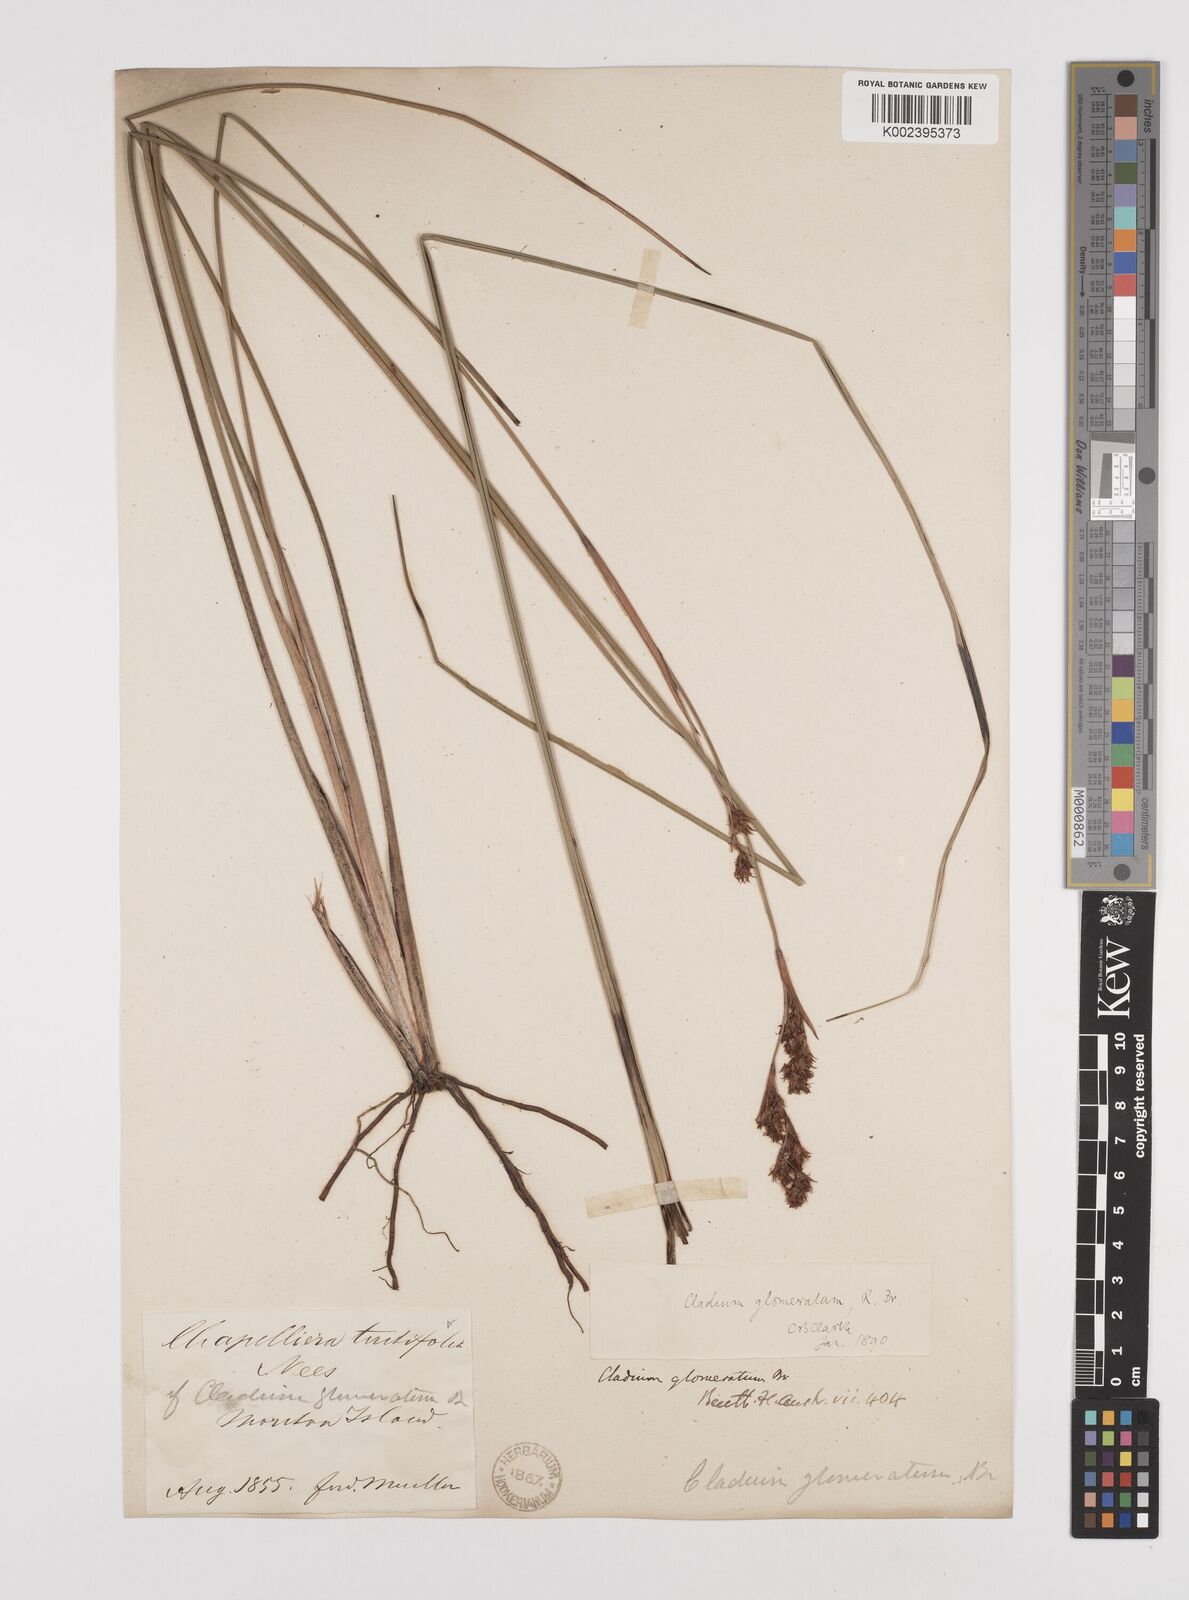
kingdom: Plantae
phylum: Tracheophyta
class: Liliopsida
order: Poales
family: Cyperaceae
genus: Machaerina
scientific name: Machaerina rubiginosa
